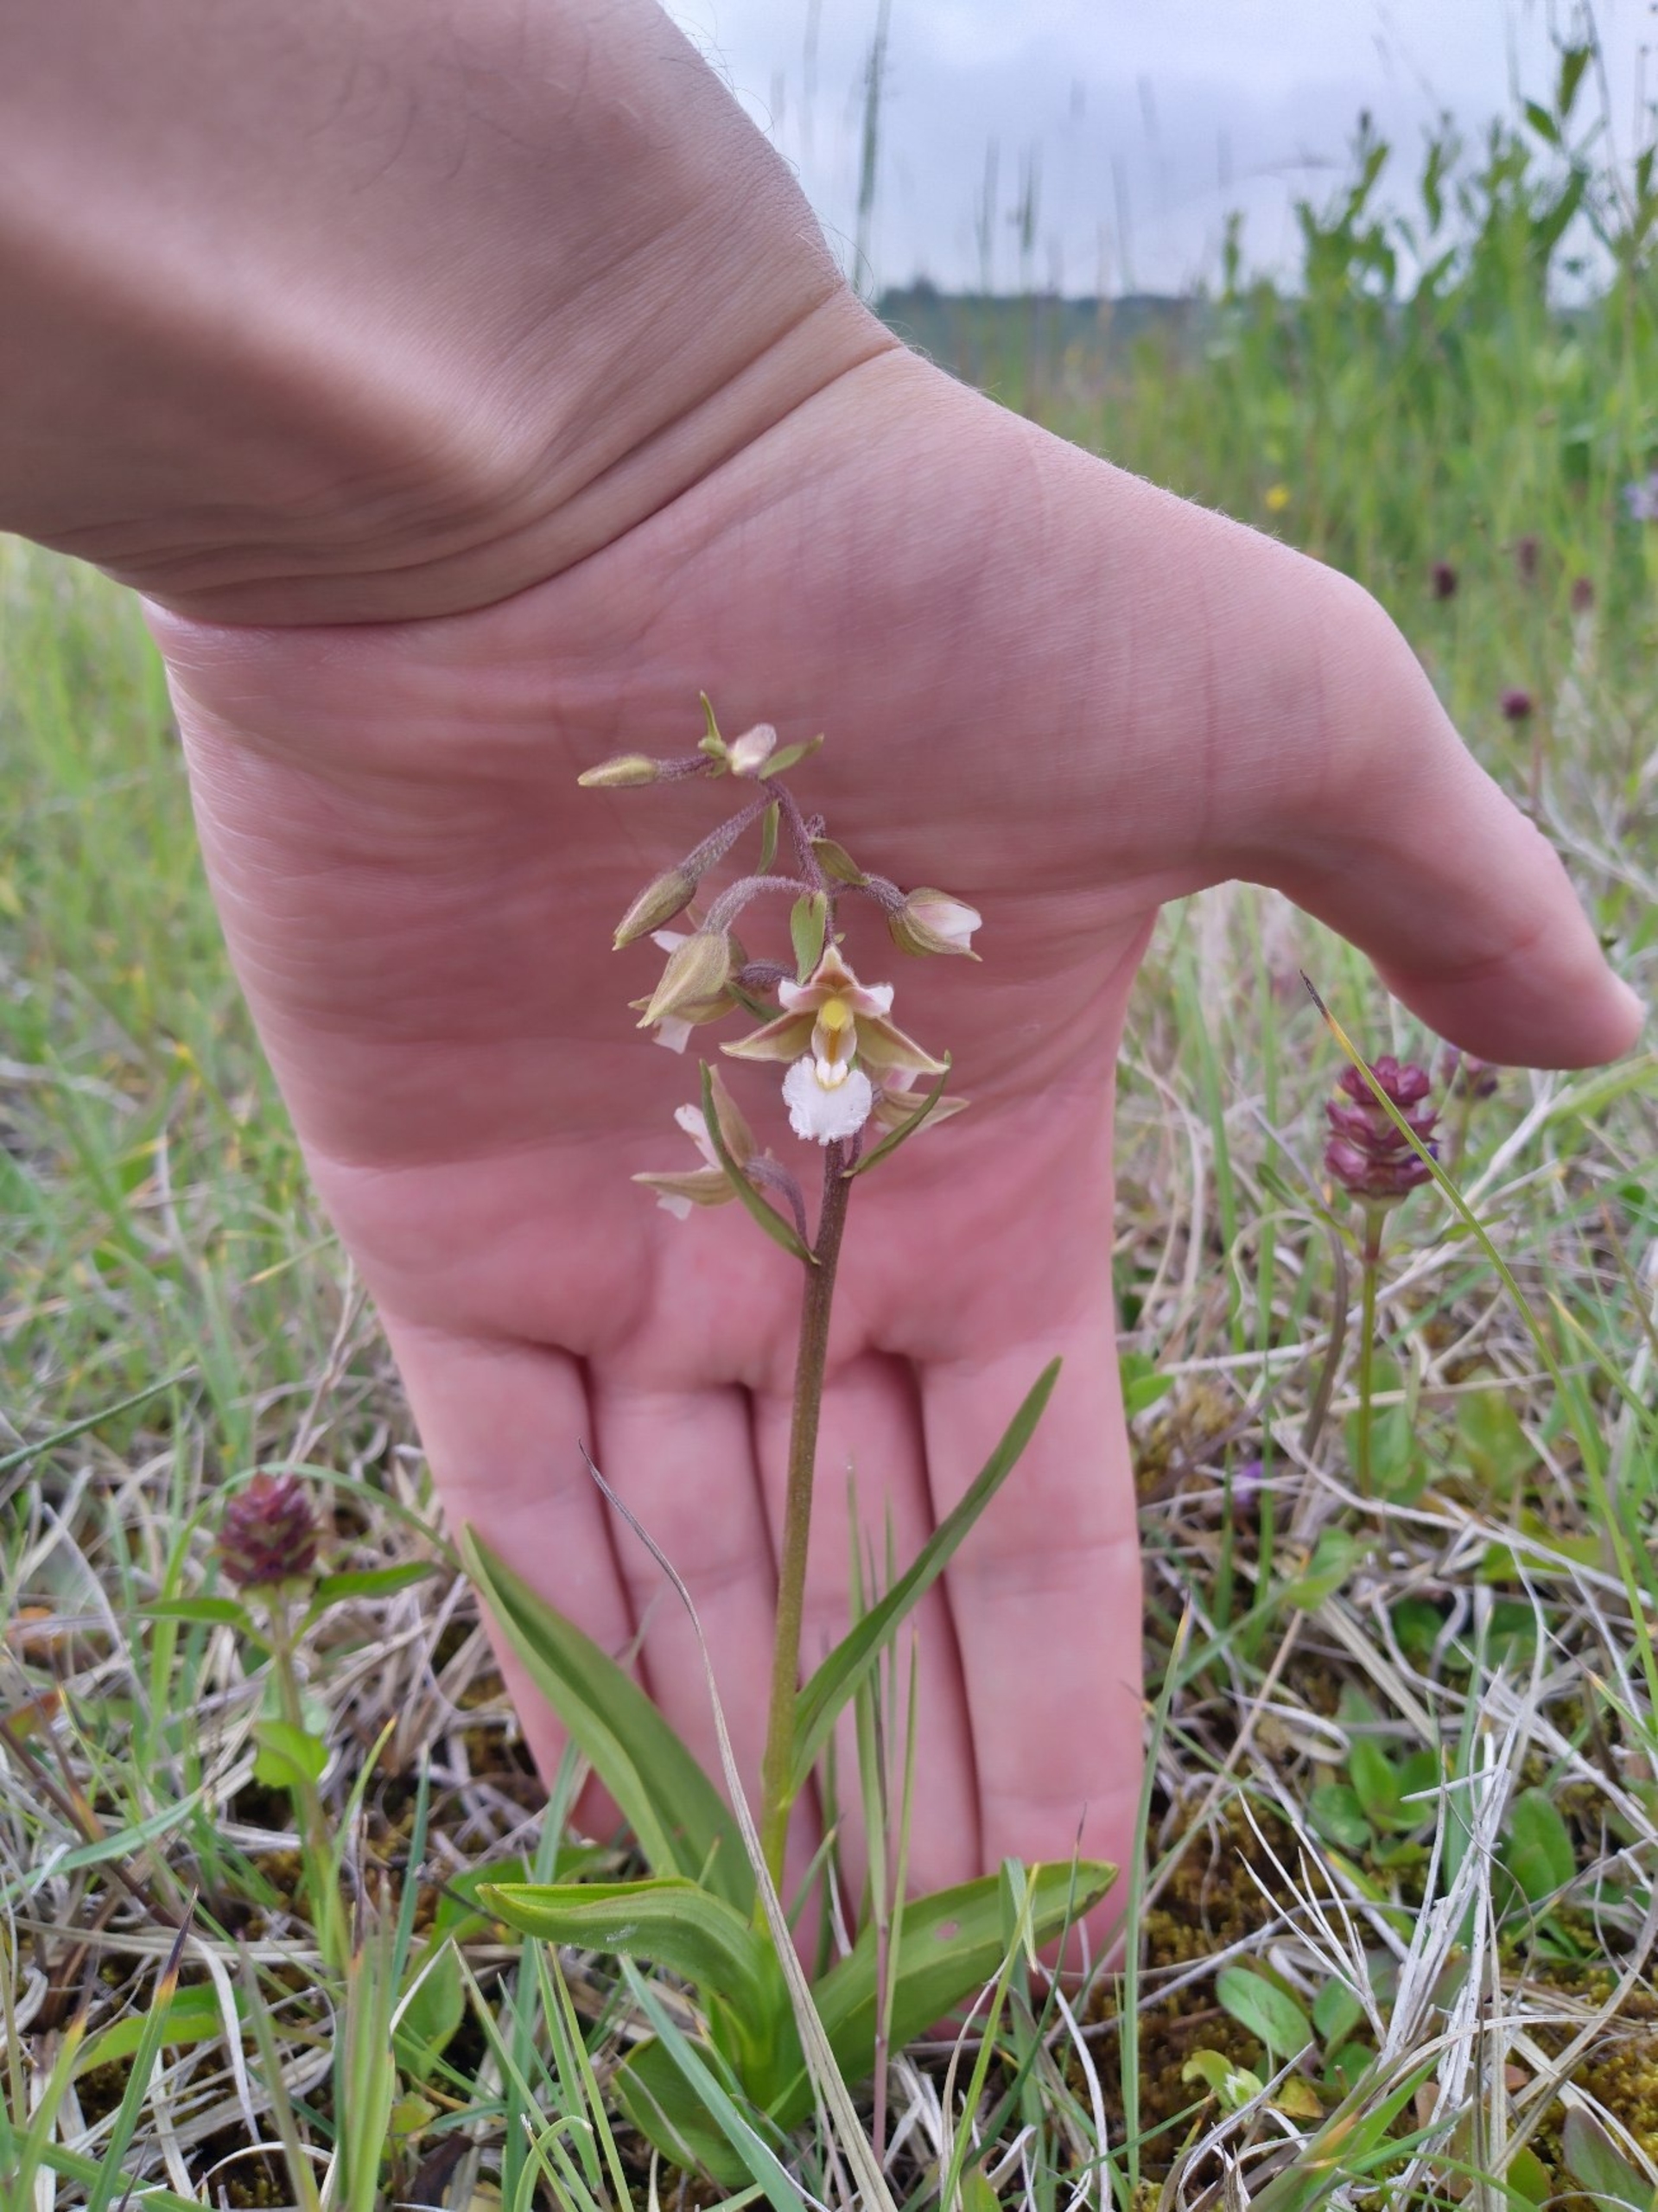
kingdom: Plantae
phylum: Tracheophyta
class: Liliopsida
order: Asparagales
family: Orchidaceae
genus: Epipactis
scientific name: Epipactis palustris
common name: Sump-hullæbe
